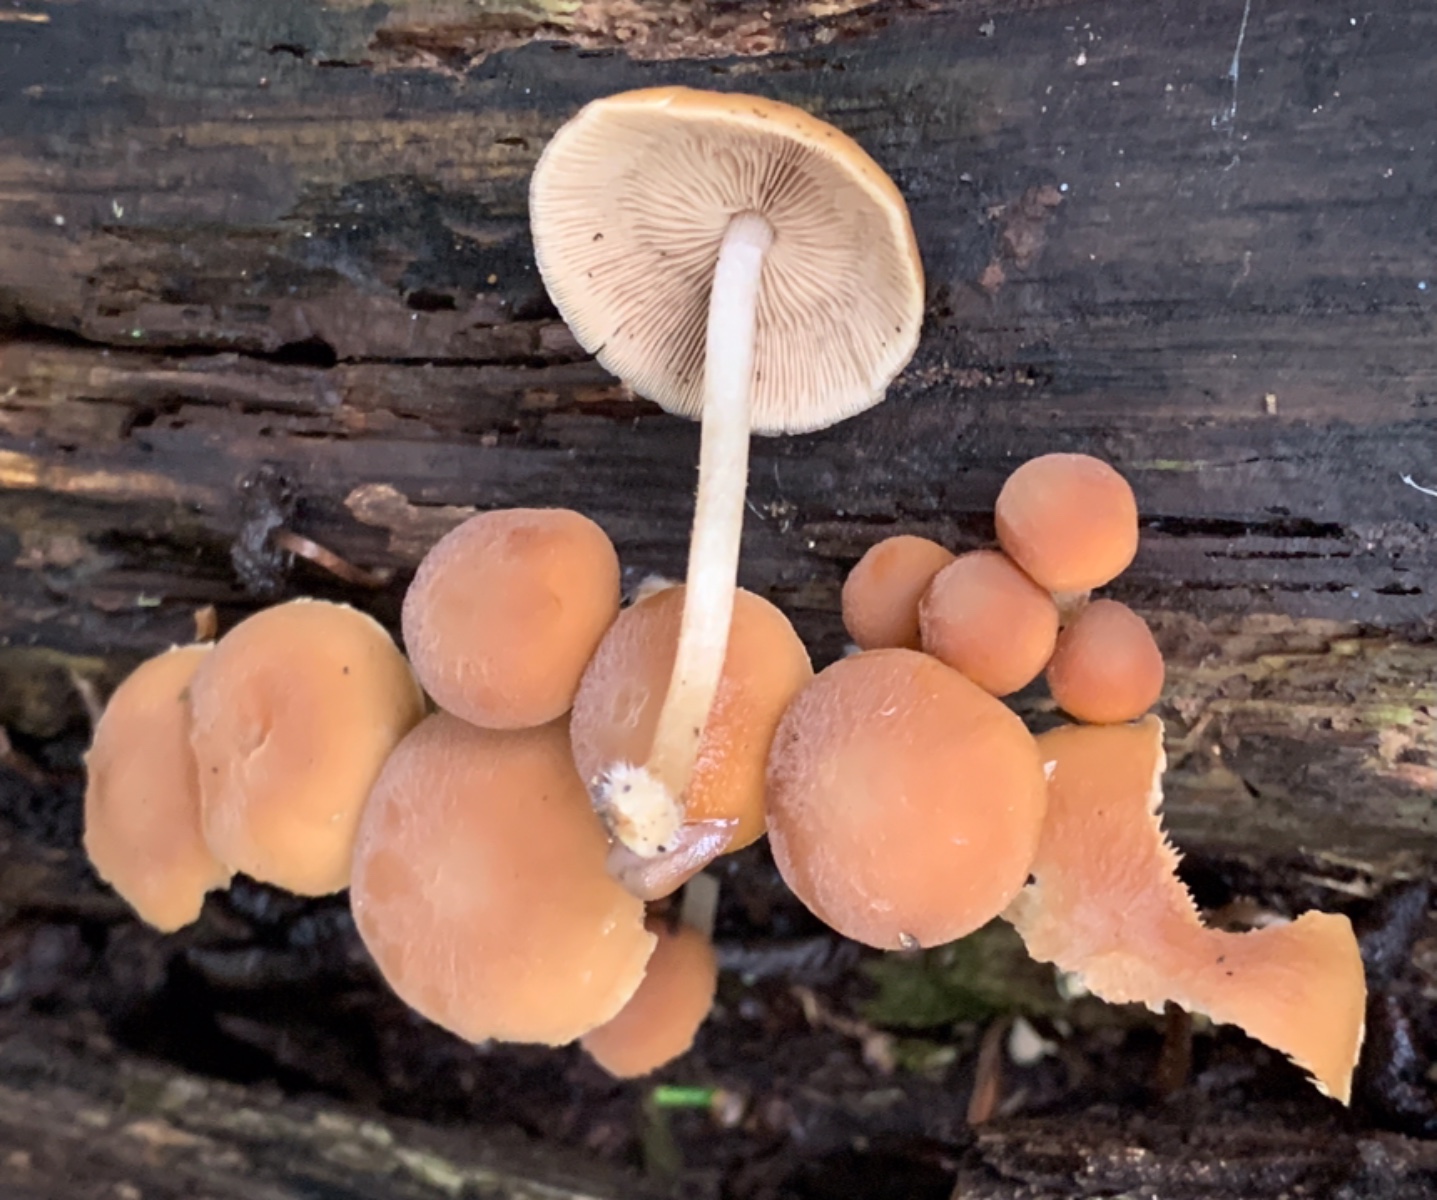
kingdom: Fungi
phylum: Basidiomycota
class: Agaricomycetes
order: Agaricales
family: Psathyrellaceae
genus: Psathyrella
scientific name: Psathyrella piluliformis
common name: lysstokket mørkhat
